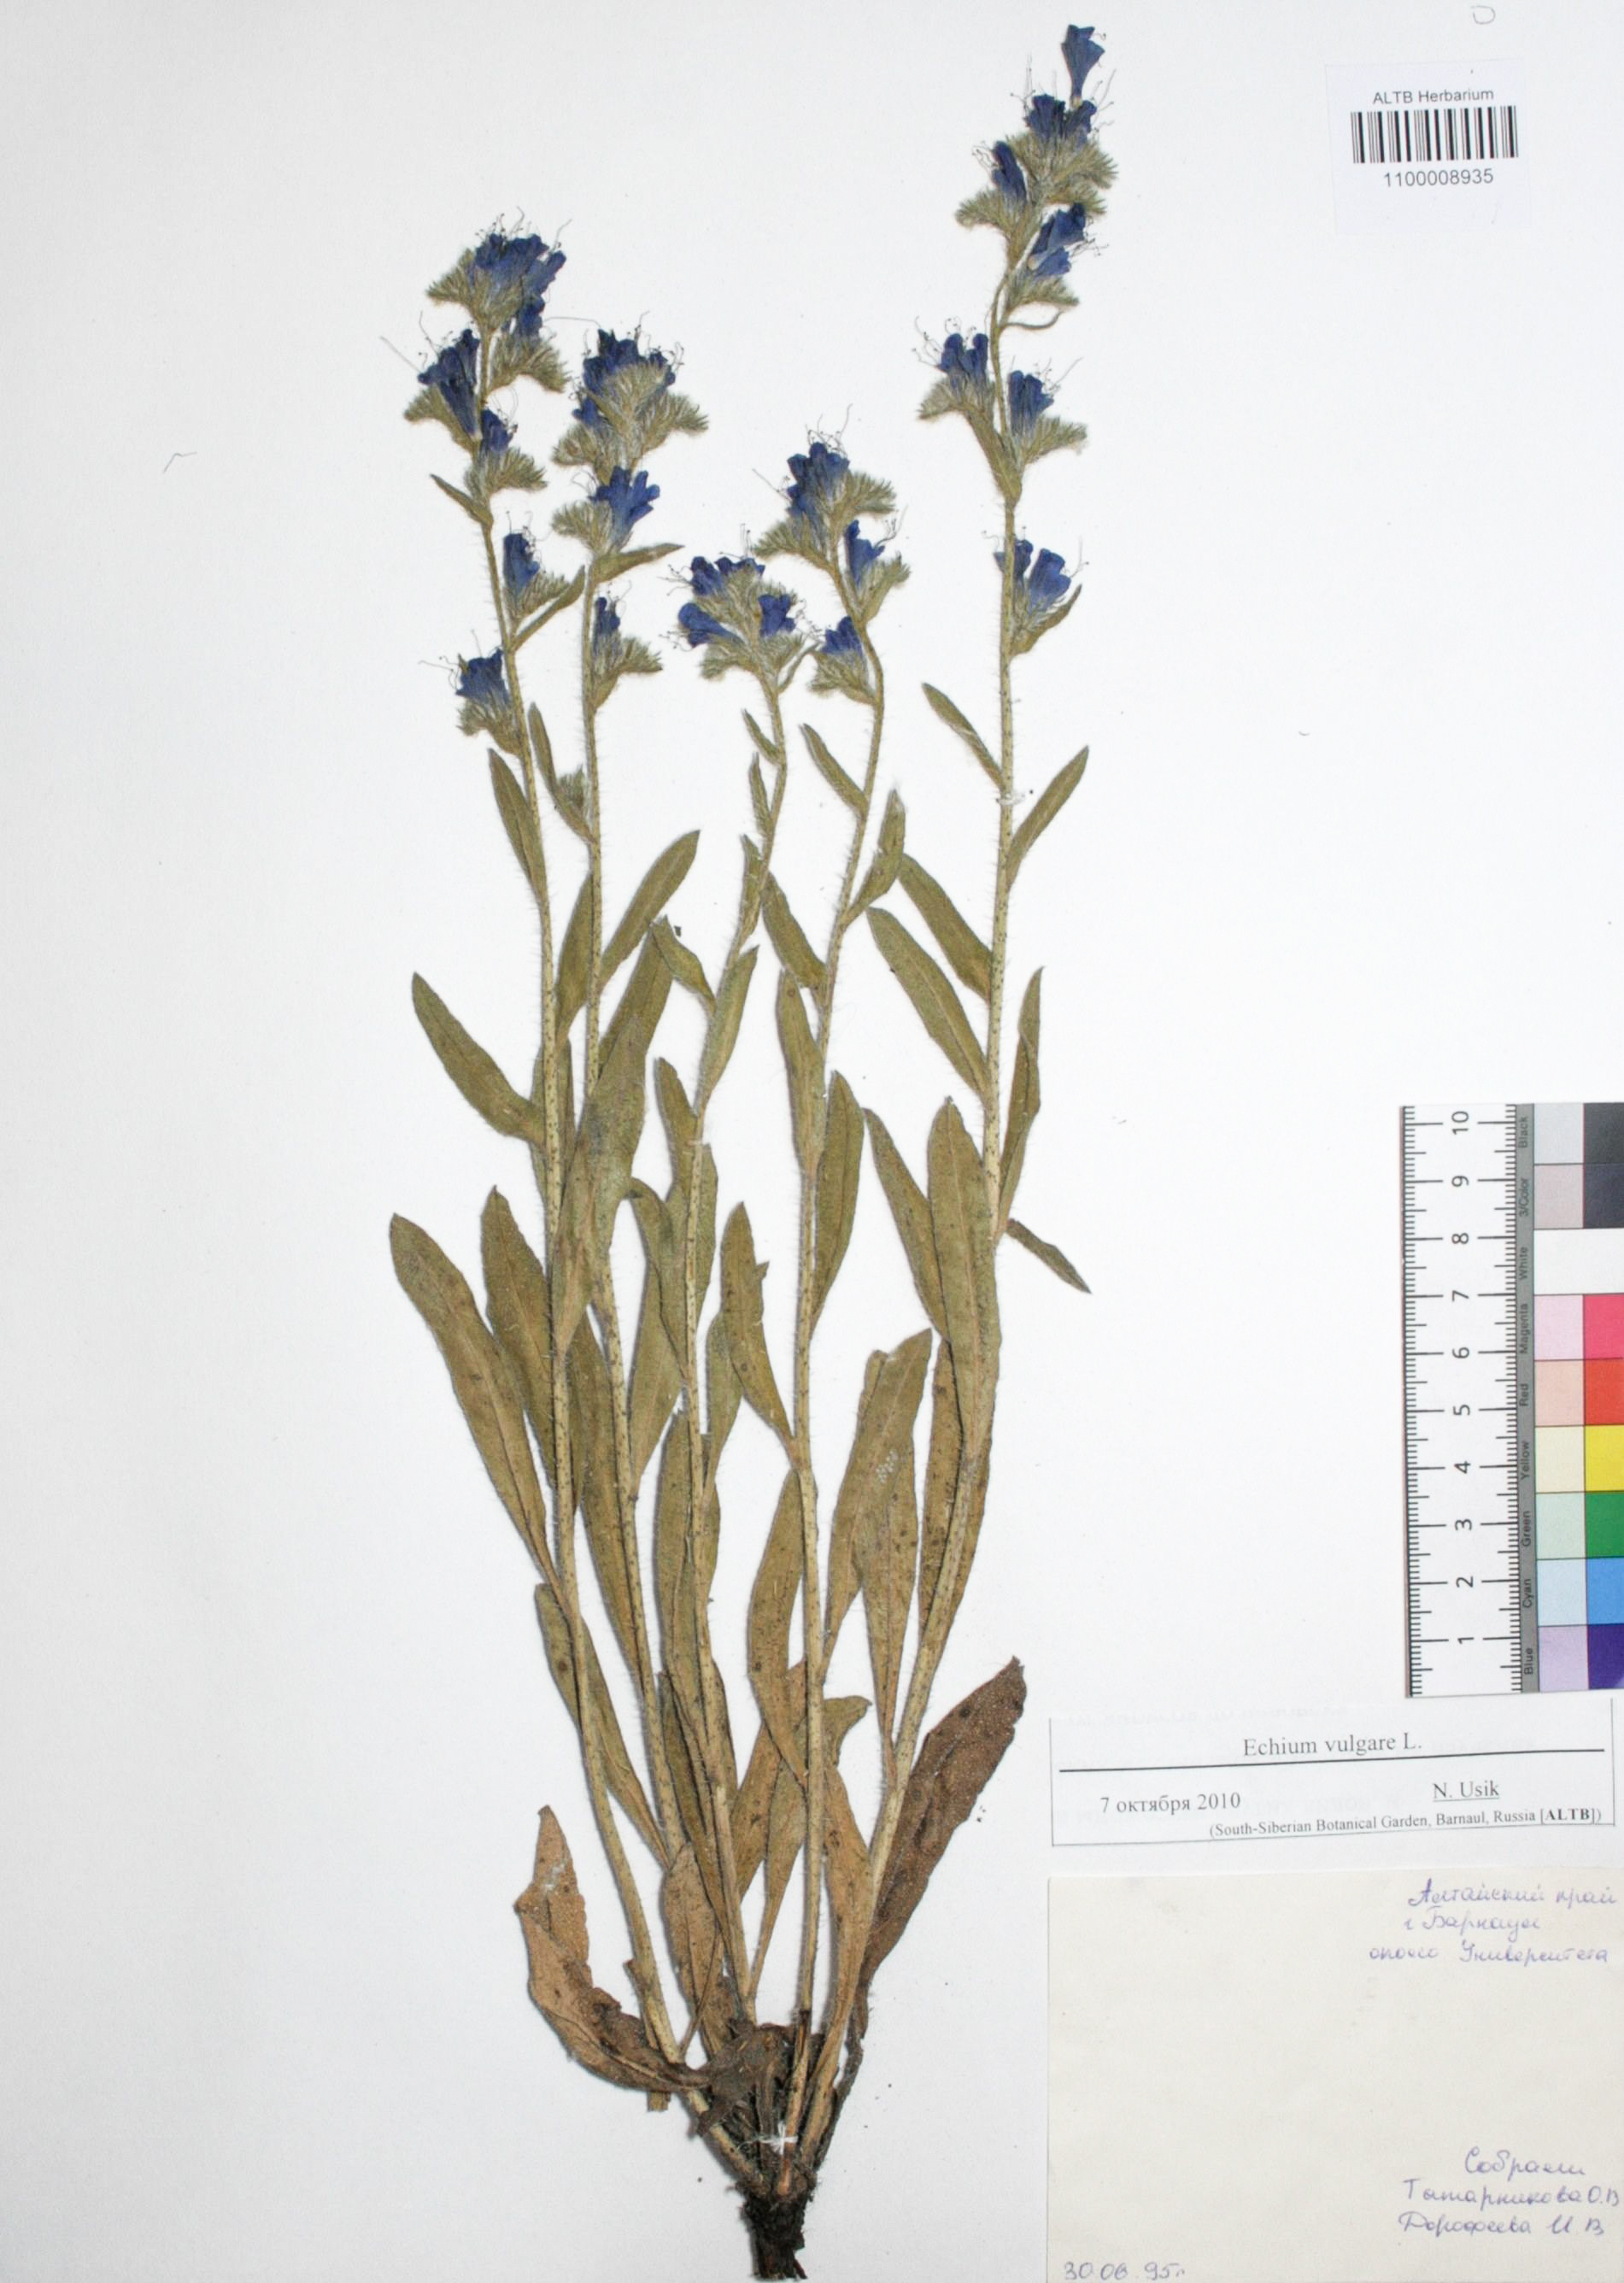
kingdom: Plantae
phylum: Tracheophyta
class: Magnoliopsida
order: Boraginales
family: Boraginaceae
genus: Echium
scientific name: Echium vulgare
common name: Common viper's bugloss
